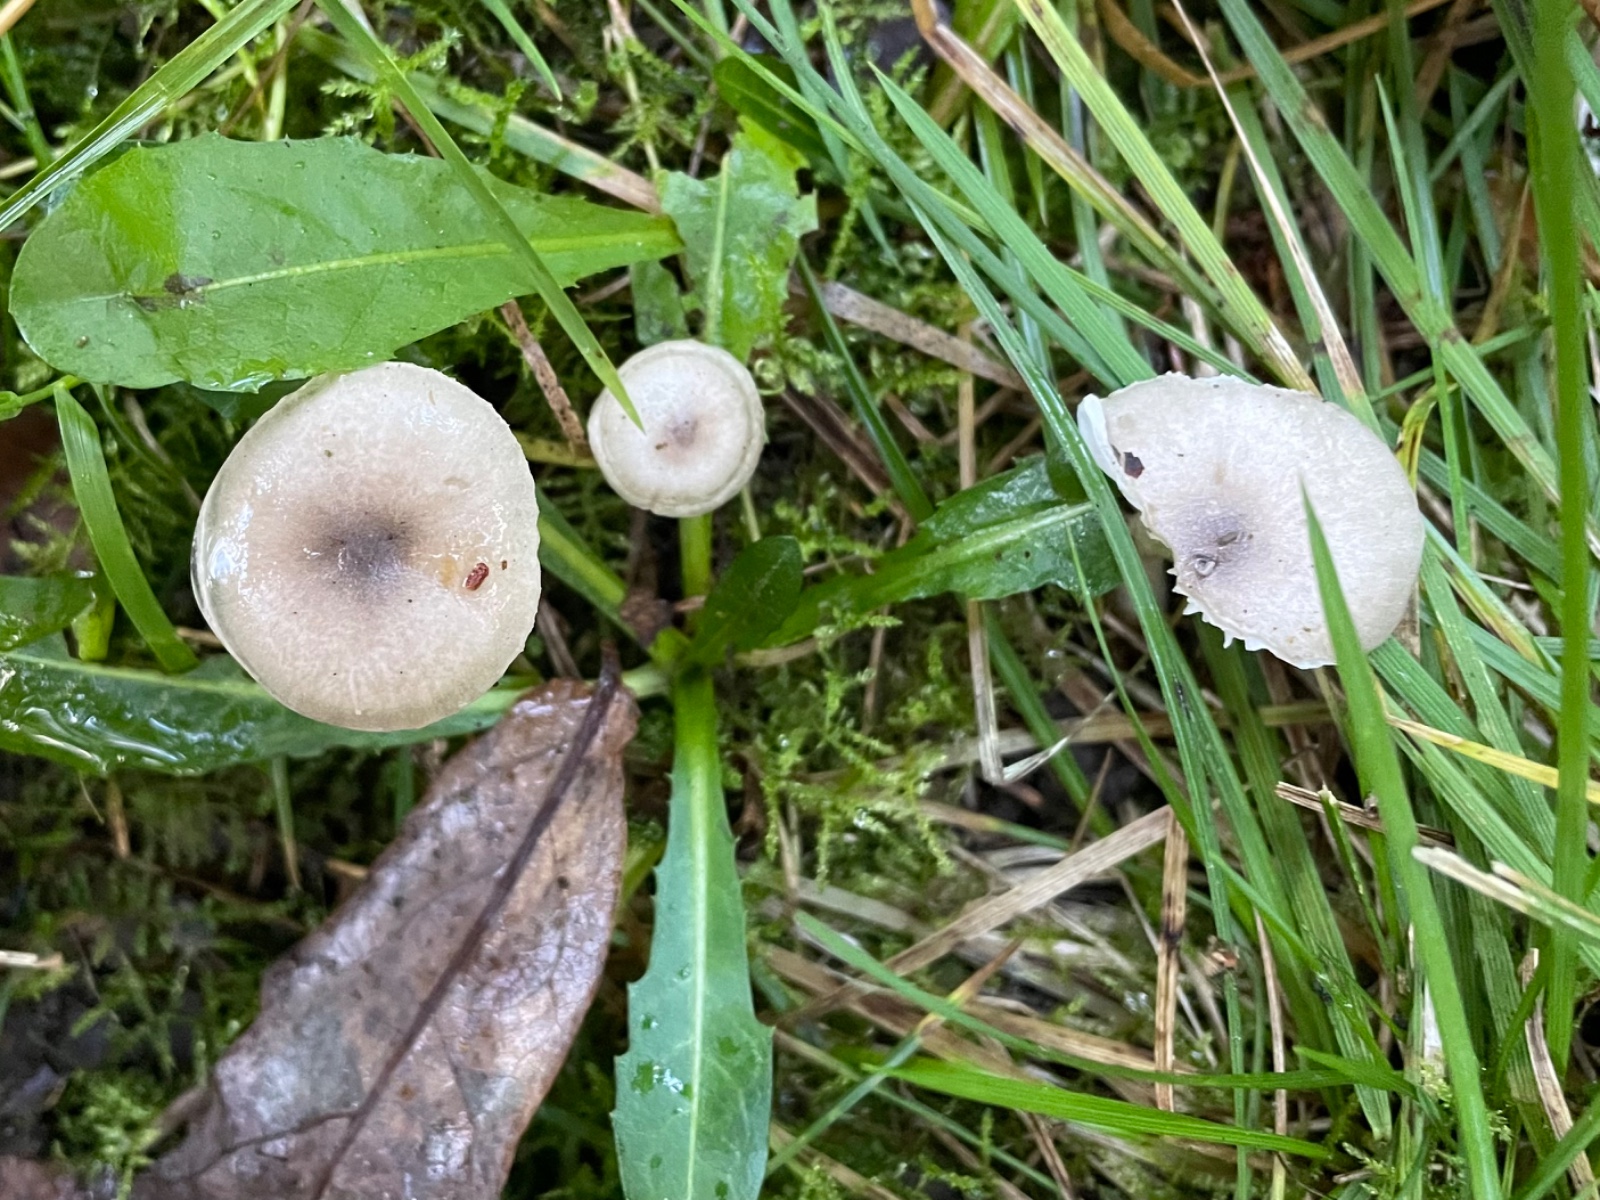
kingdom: Fungi
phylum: Basidiomycota
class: Agaricomycetes
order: Agaricales
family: Hygrophoraceae
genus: Hygrophorus
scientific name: Hygrophorus pustulatus
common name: mørkprikket sneglehat
